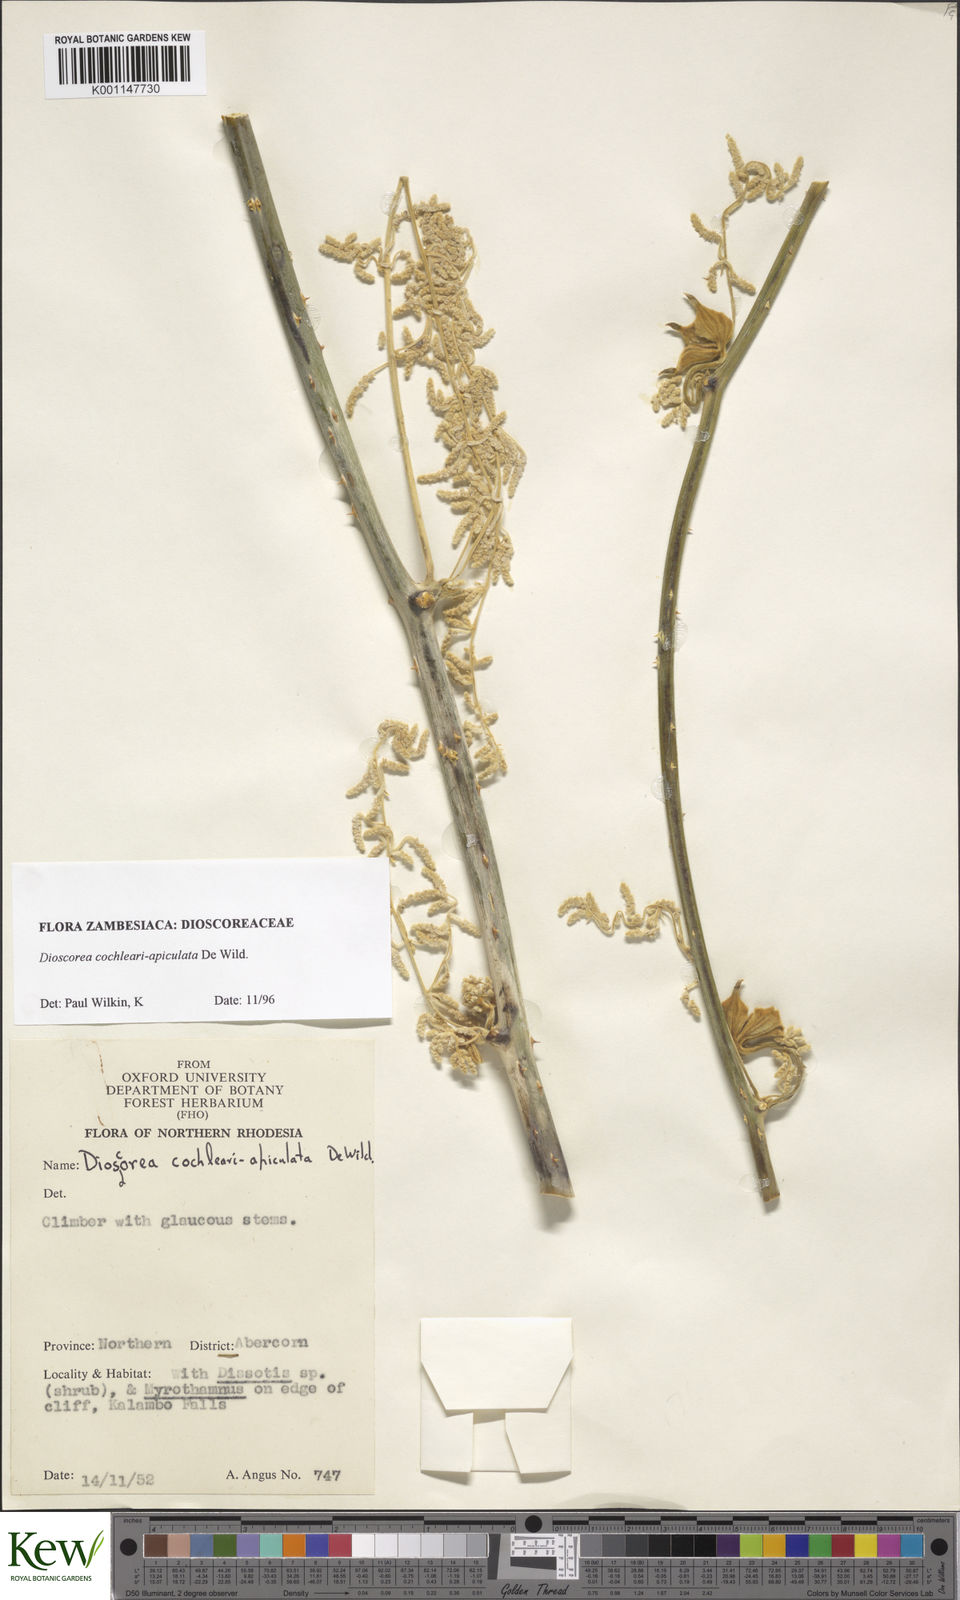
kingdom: Plantae
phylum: Tracheophyta
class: Liliopsida
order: Dioscoreales
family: Dioscoreaceae
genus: Dioscorea
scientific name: Dioscorea cochleariapiculata
